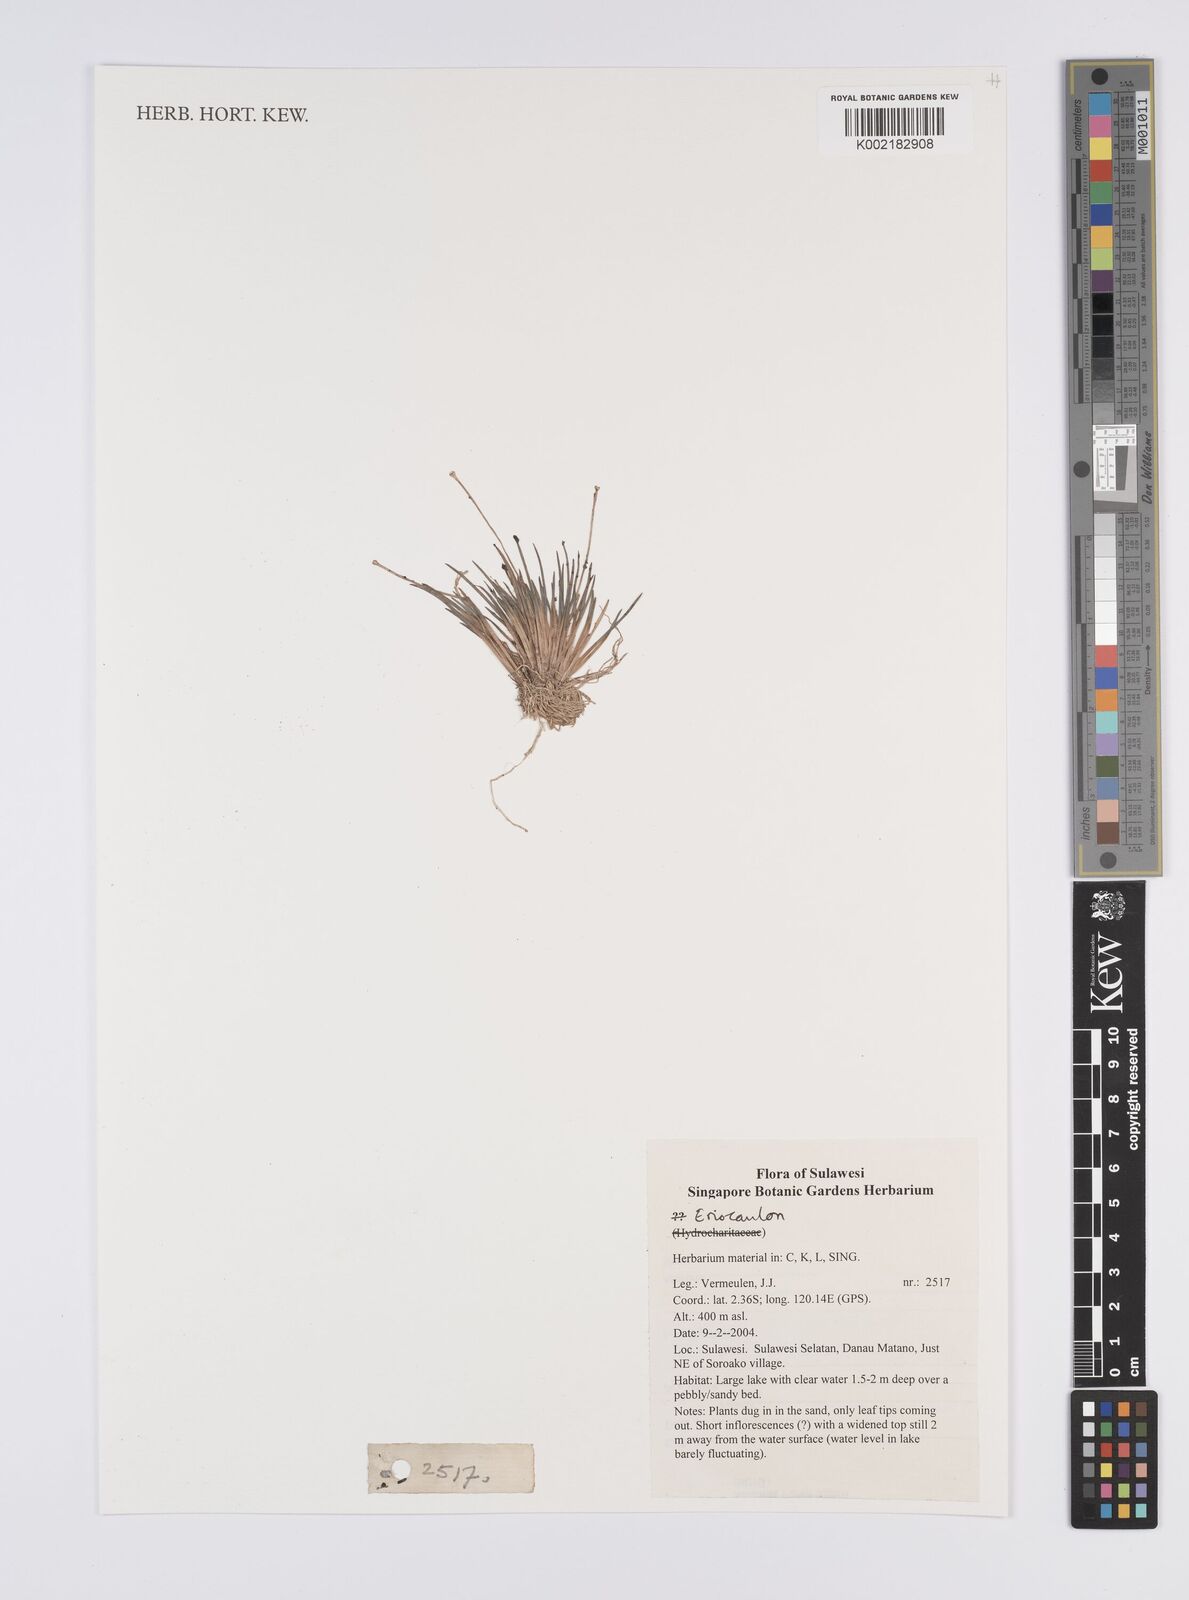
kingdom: Plantae
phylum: Tracheophyta
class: Liliopsida
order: Poales
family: Eriocaulaceae
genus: Eriocaulon
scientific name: Eriocaulon
